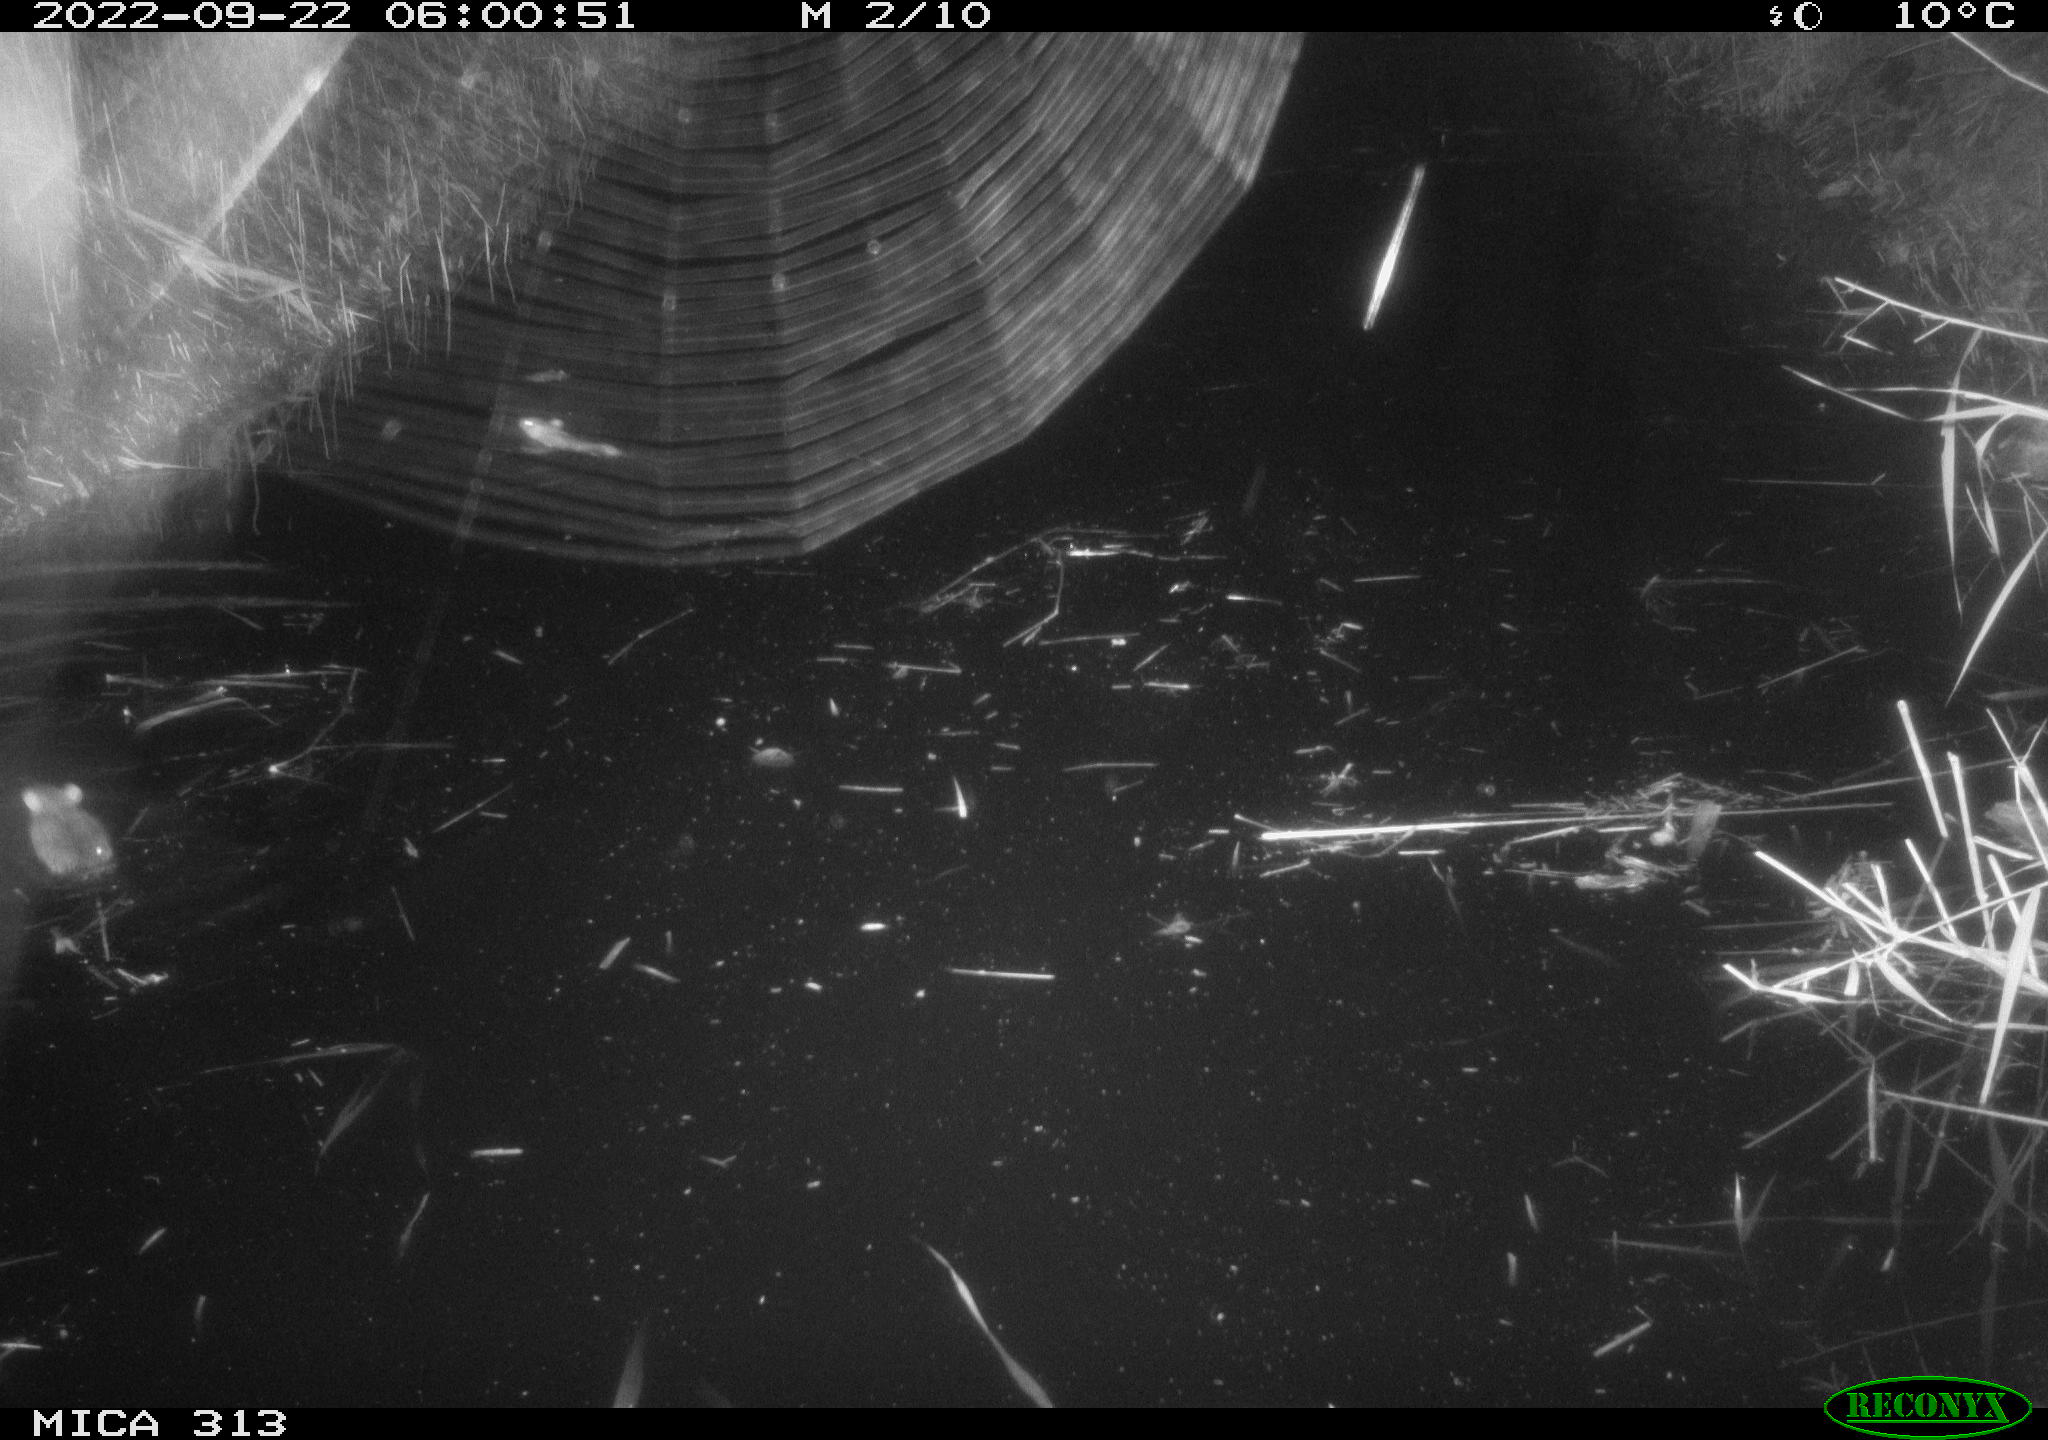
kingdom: Animalia
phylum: Chordata
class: Mammalia
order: Rodentia
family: Muridae
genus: Rattus
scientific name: Rattus norvegicus
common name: Brown rat
